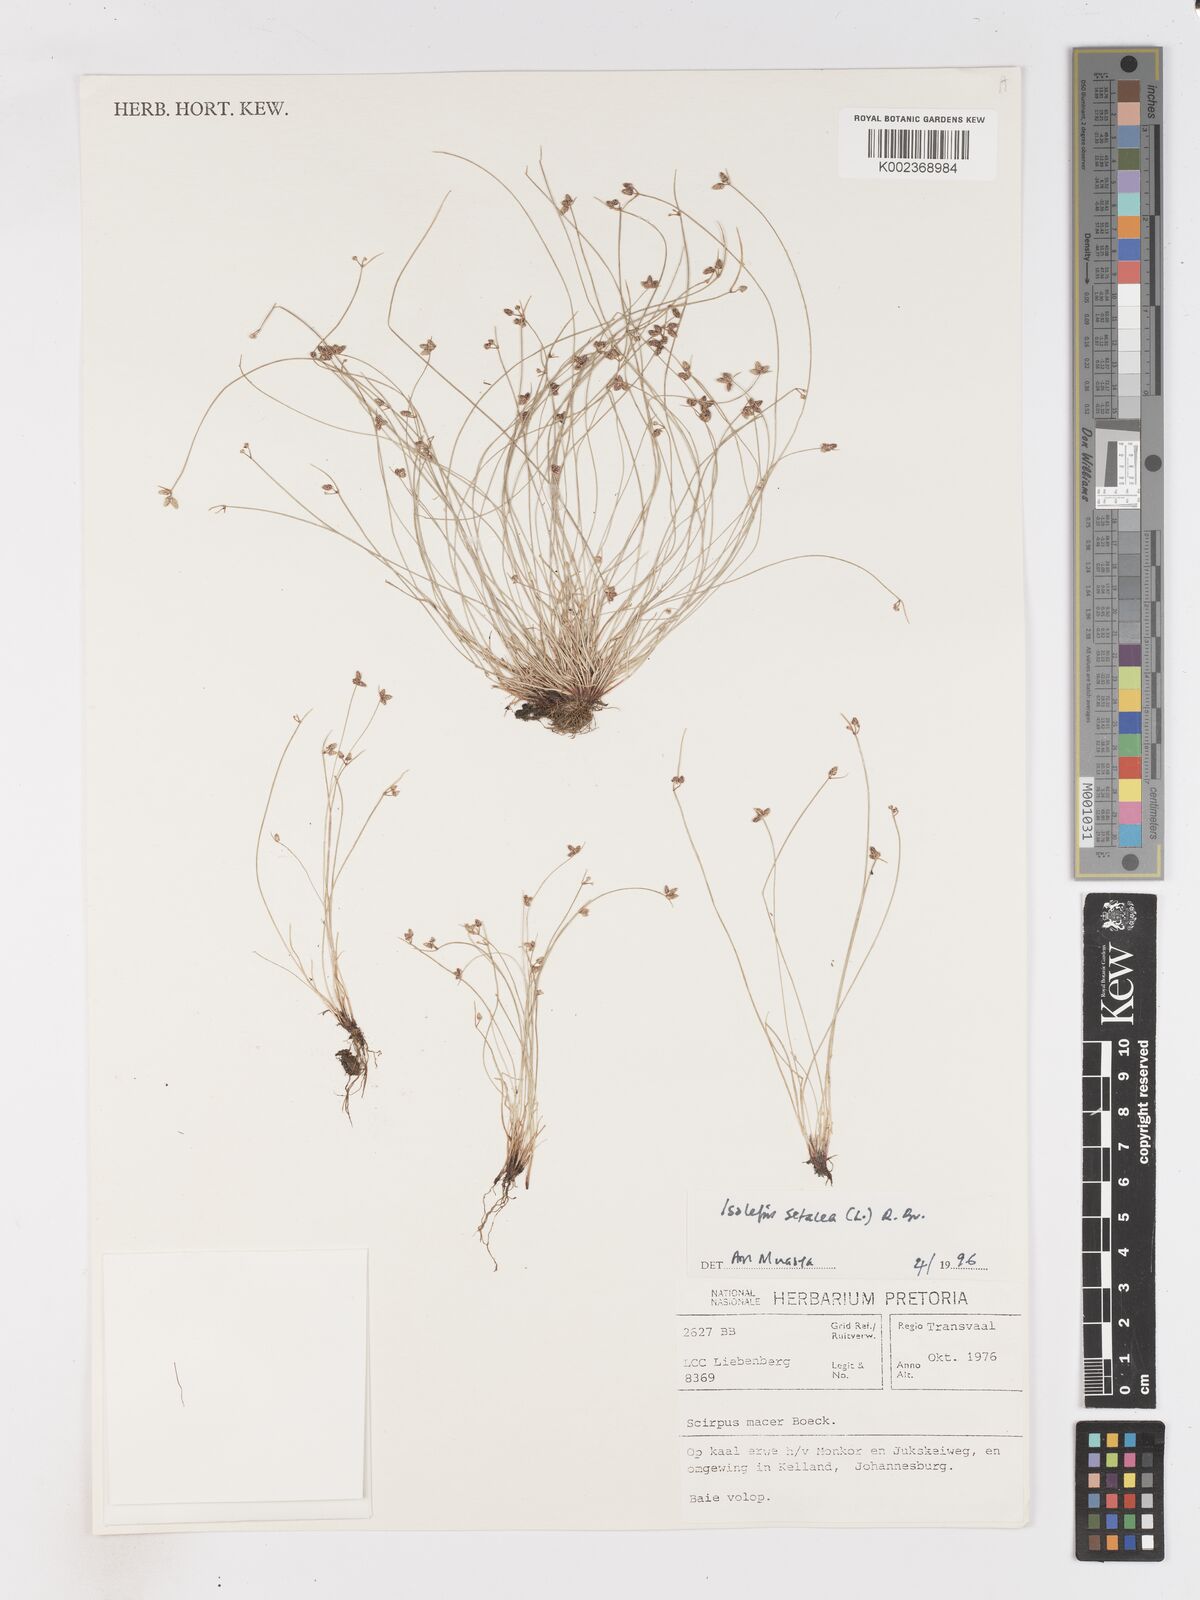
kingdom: Plantae
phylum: Tracheophyta
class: Liliopsida
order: Poales
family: Cyperaceae
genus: Isolepis
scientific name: Isolepis setacea
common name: Bristle club-rush
